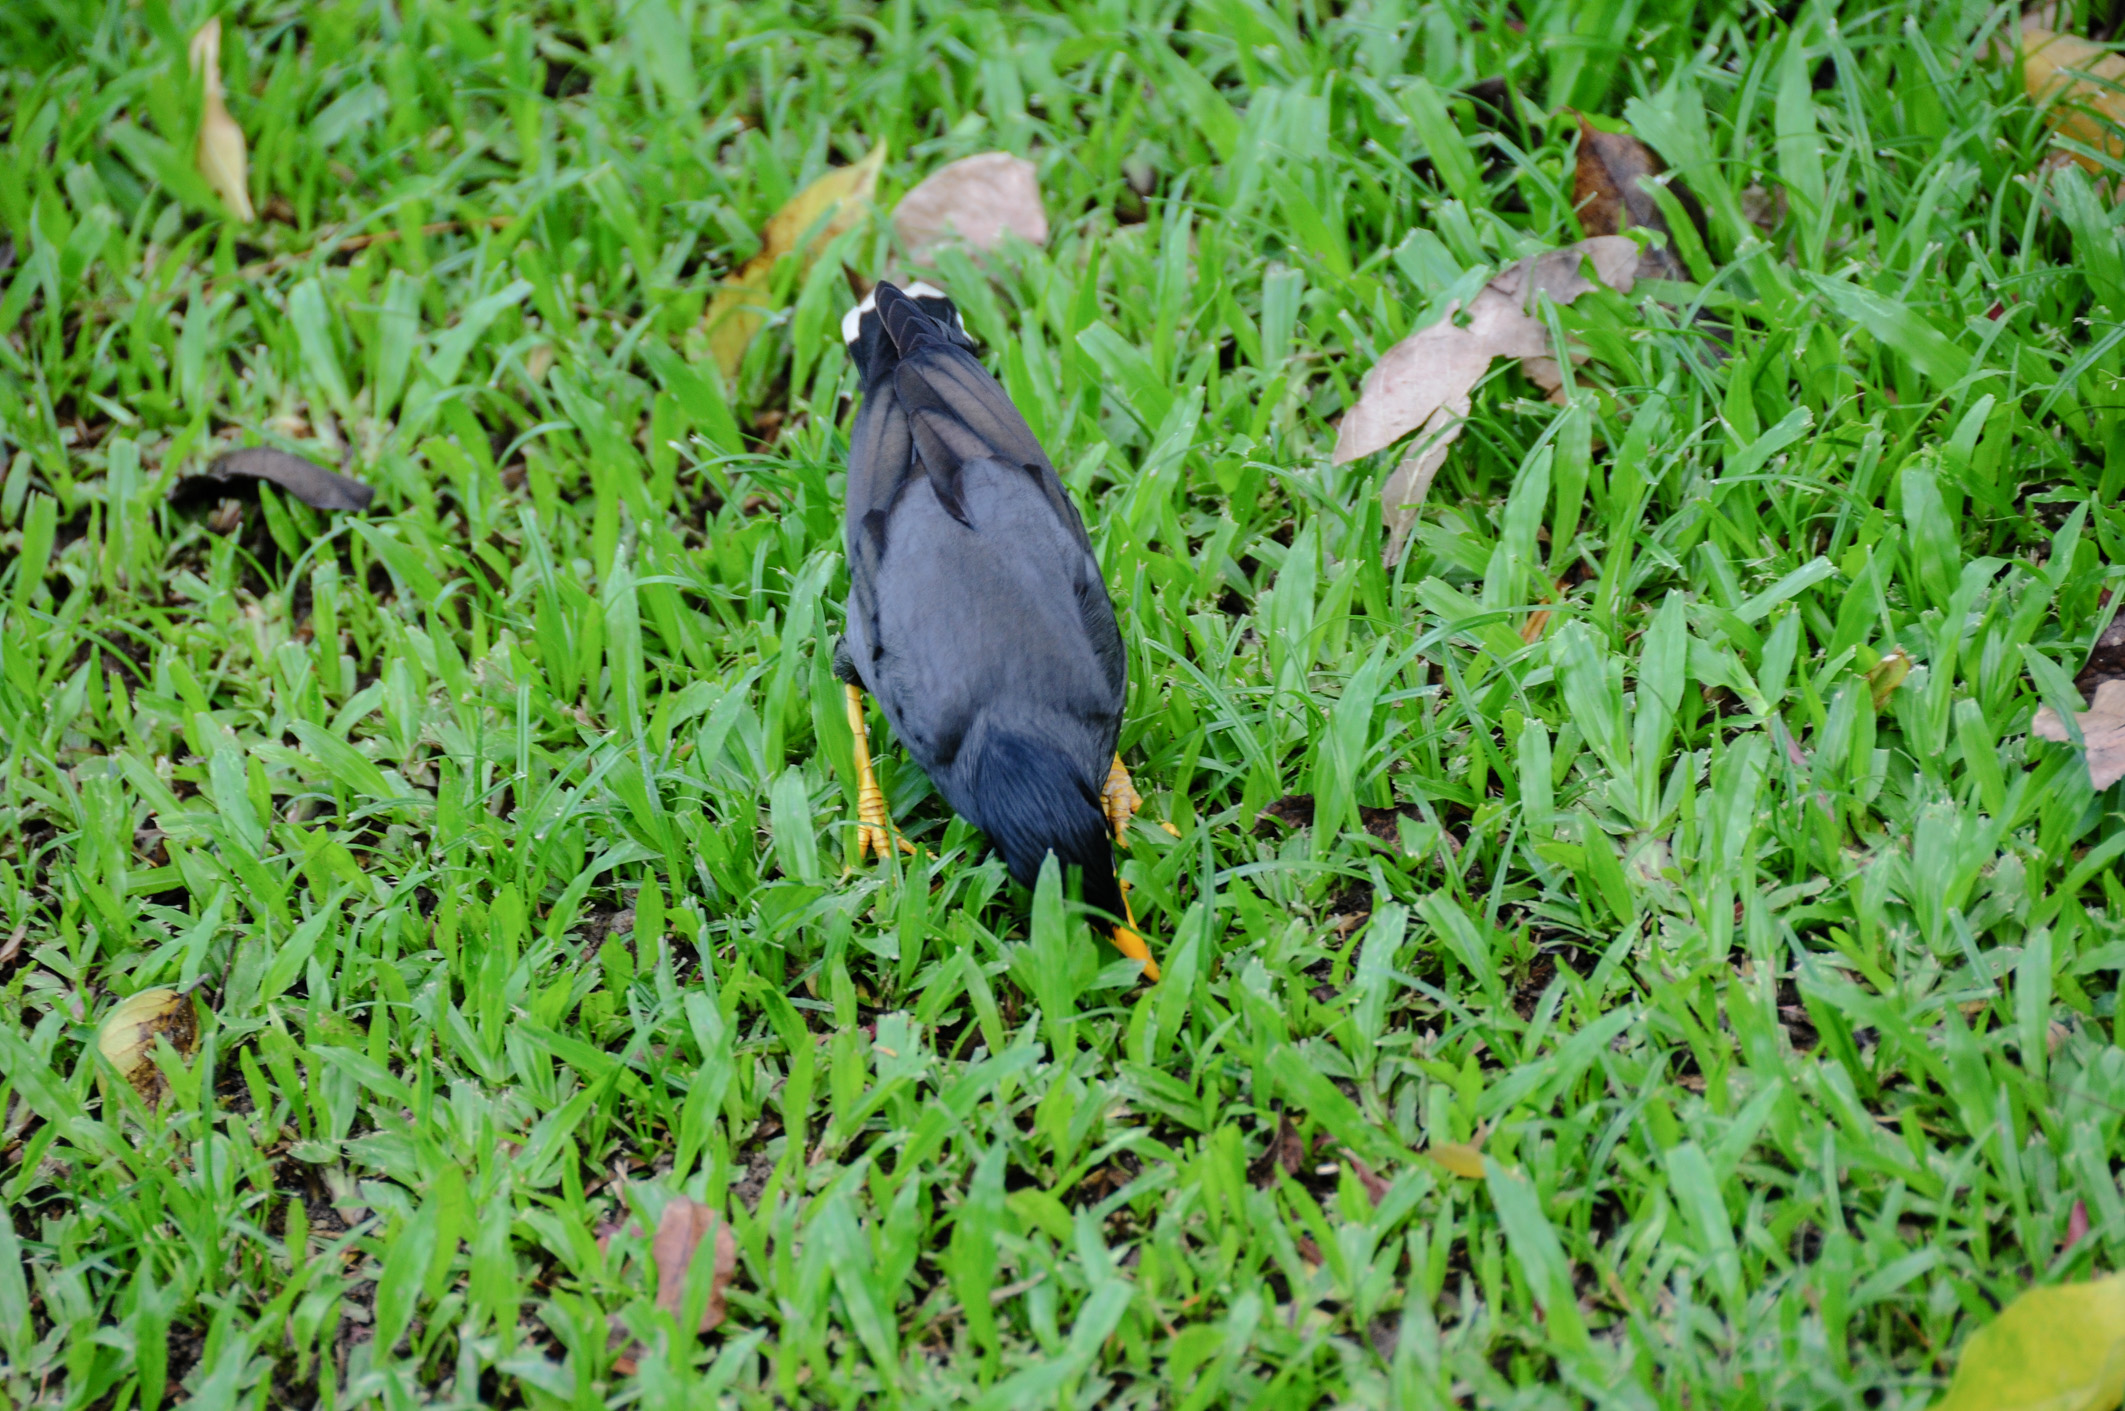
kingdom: Animalia
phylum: Chordata
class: Aves
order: Passeriformes
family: Sturnidae
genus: Acridotheres
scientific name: Acridotheres javanicus
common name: Javan myna
